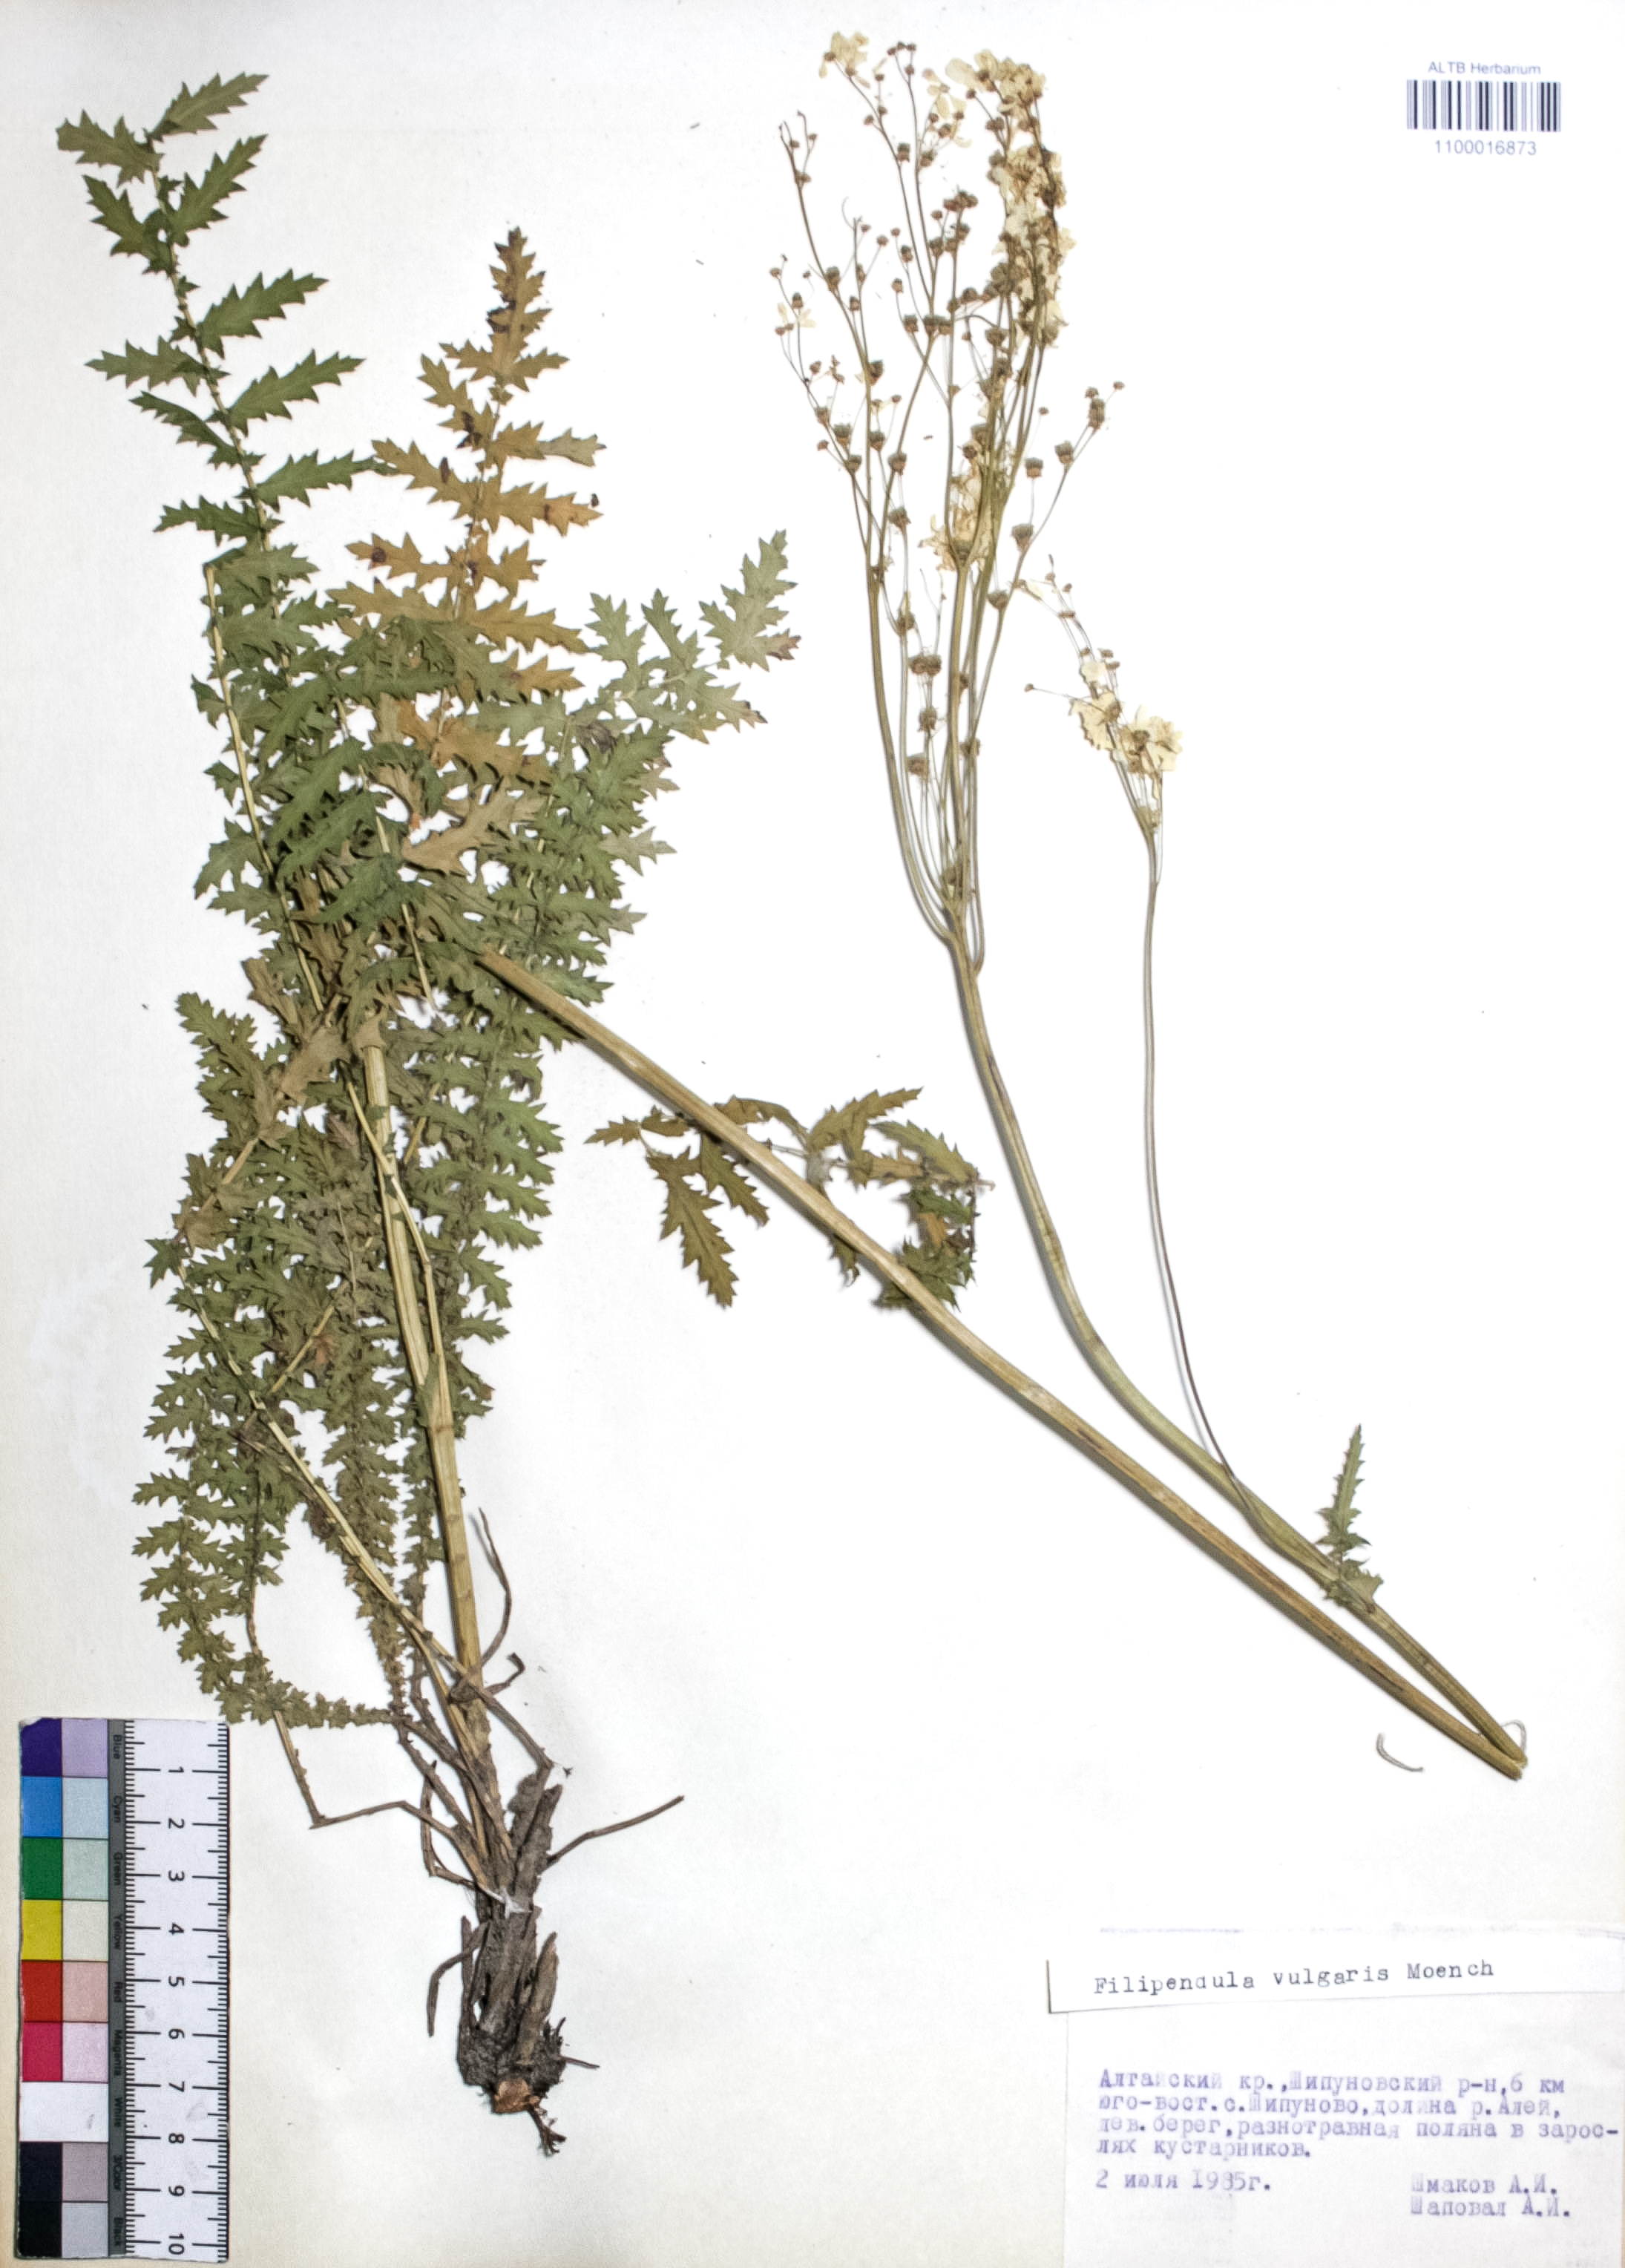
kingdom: Plantae
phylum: Tracheophyta
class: Magnoliopsida
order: Rosales
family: Rosaceae
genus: Filipendula
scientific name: Filipendula vulgaris
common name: Dropwort
